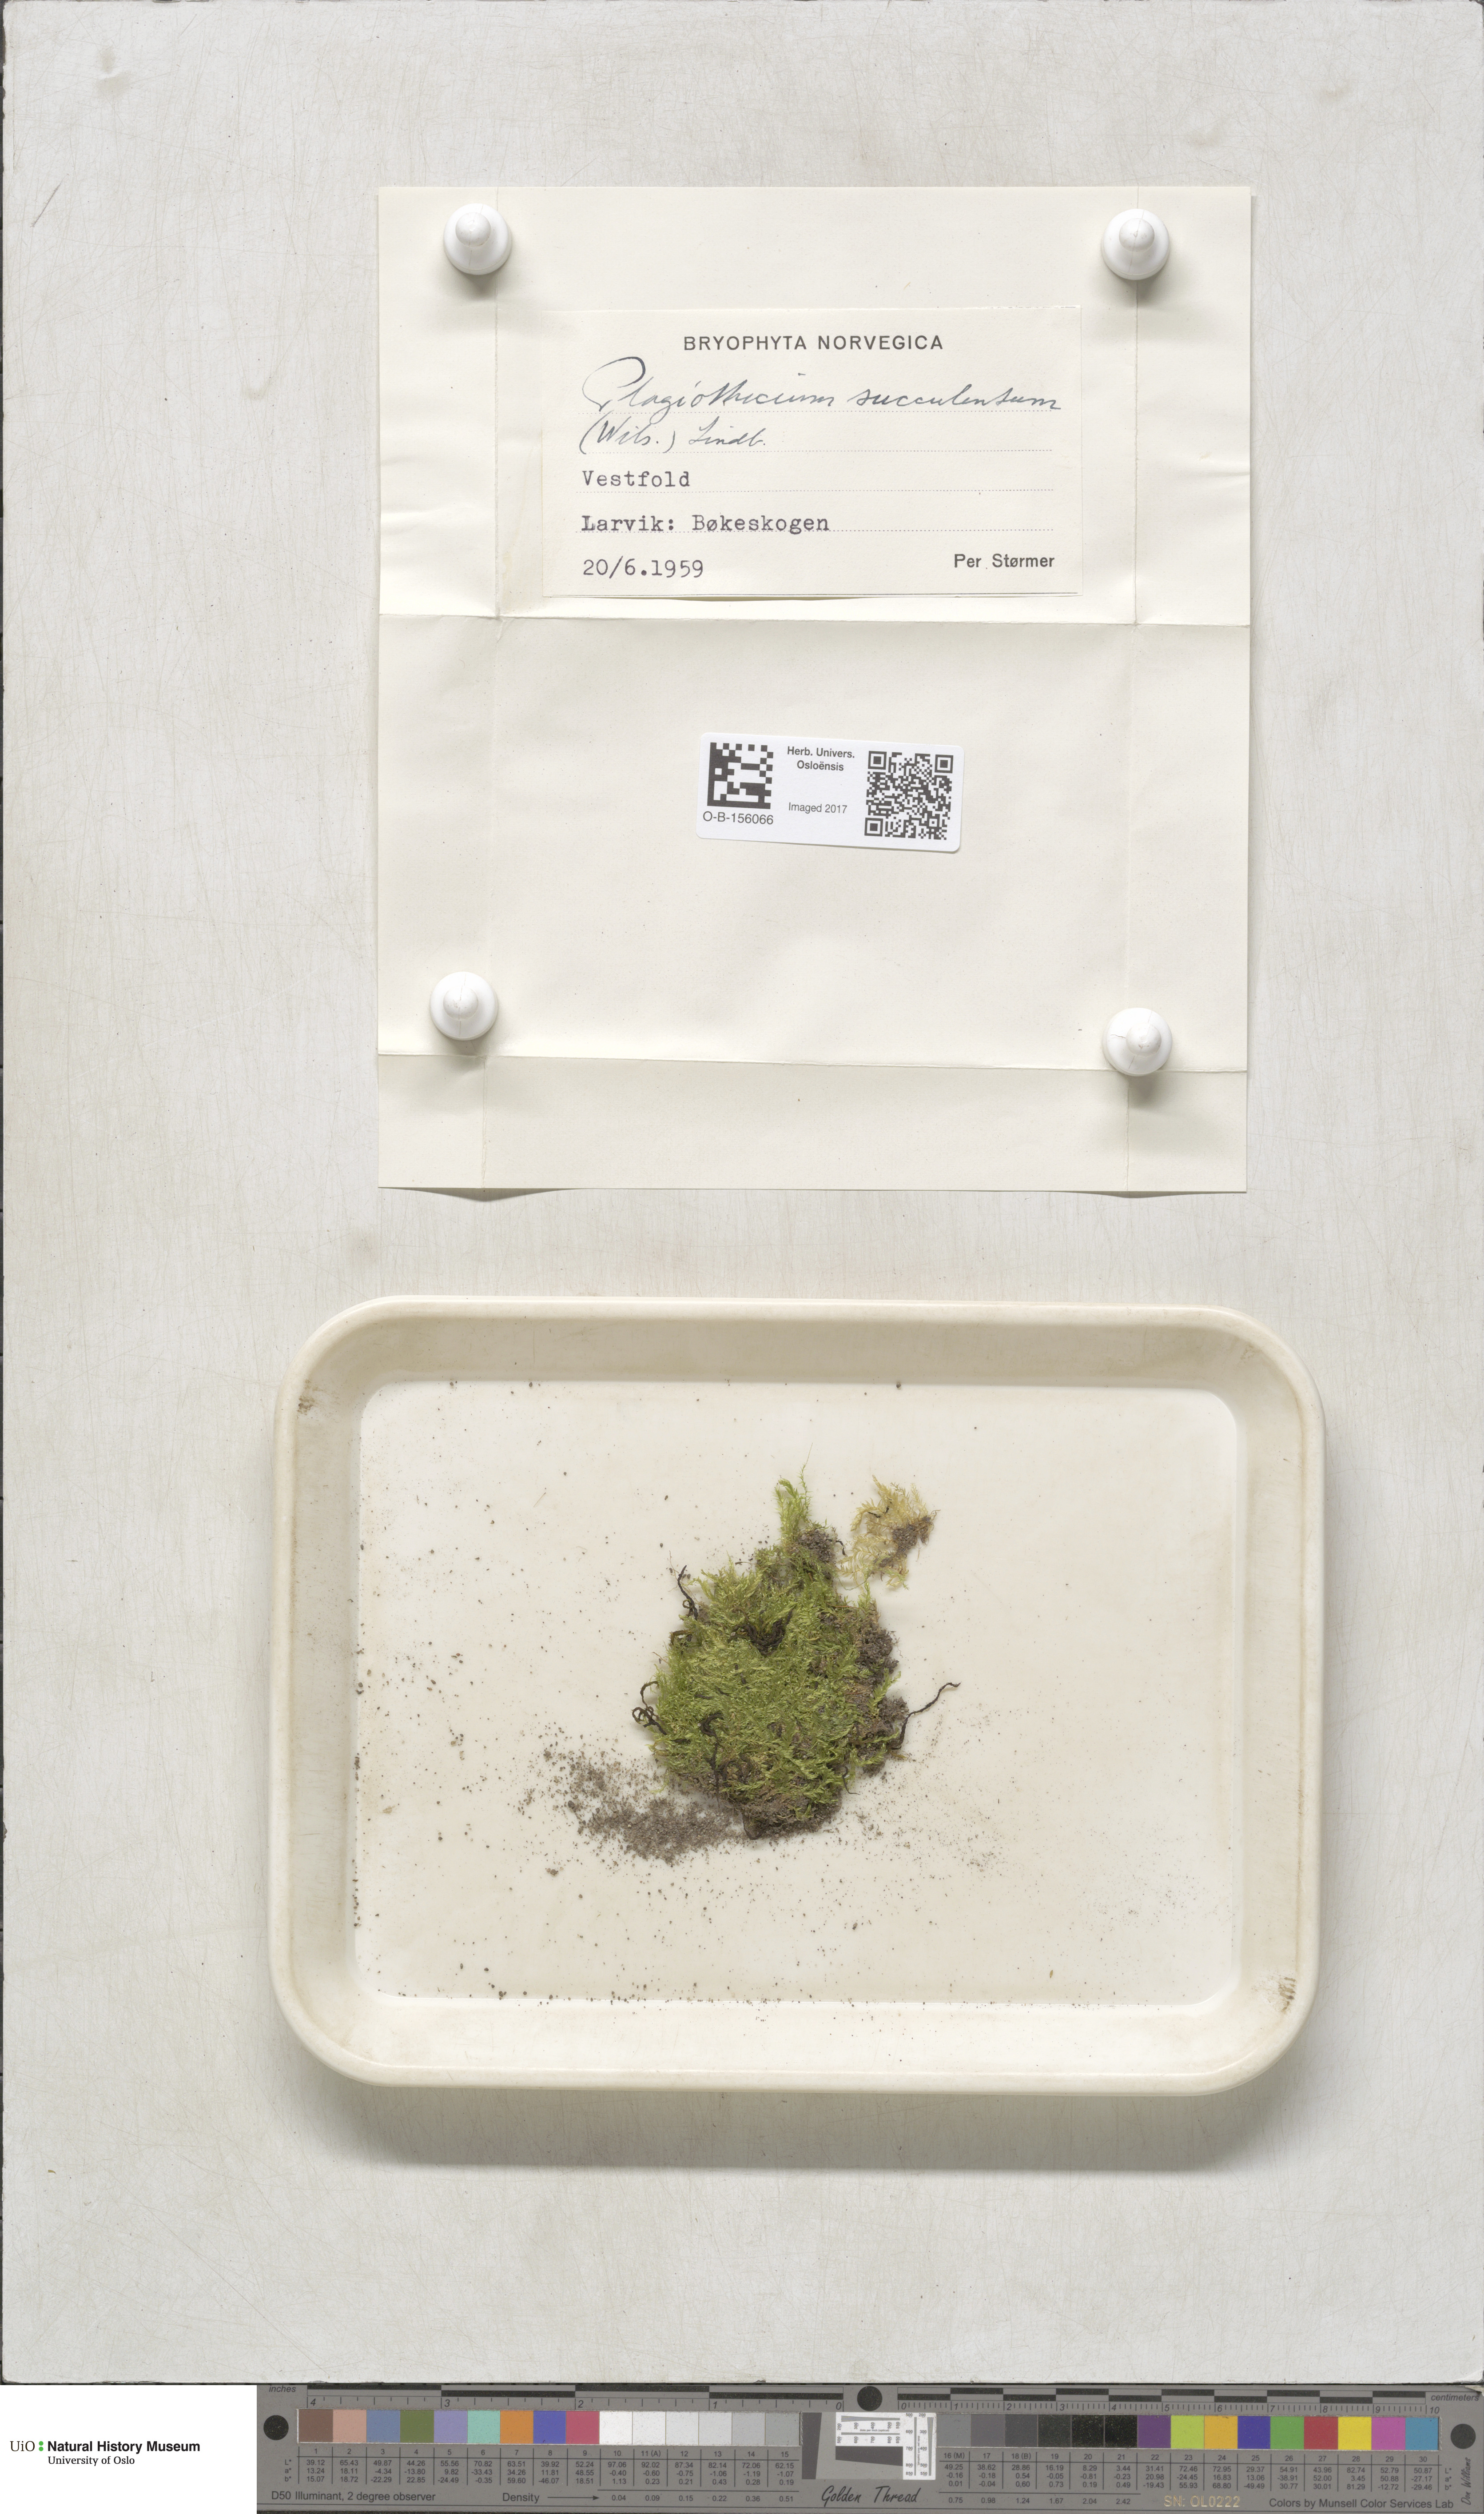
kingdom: Plantae
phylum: Bryophyta
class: Bryopsida
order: Hypnales
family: Plagiotheciaceae
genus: Plagiothecium
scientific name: Plagiothecium succulentum
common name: Juicy silk-moss
